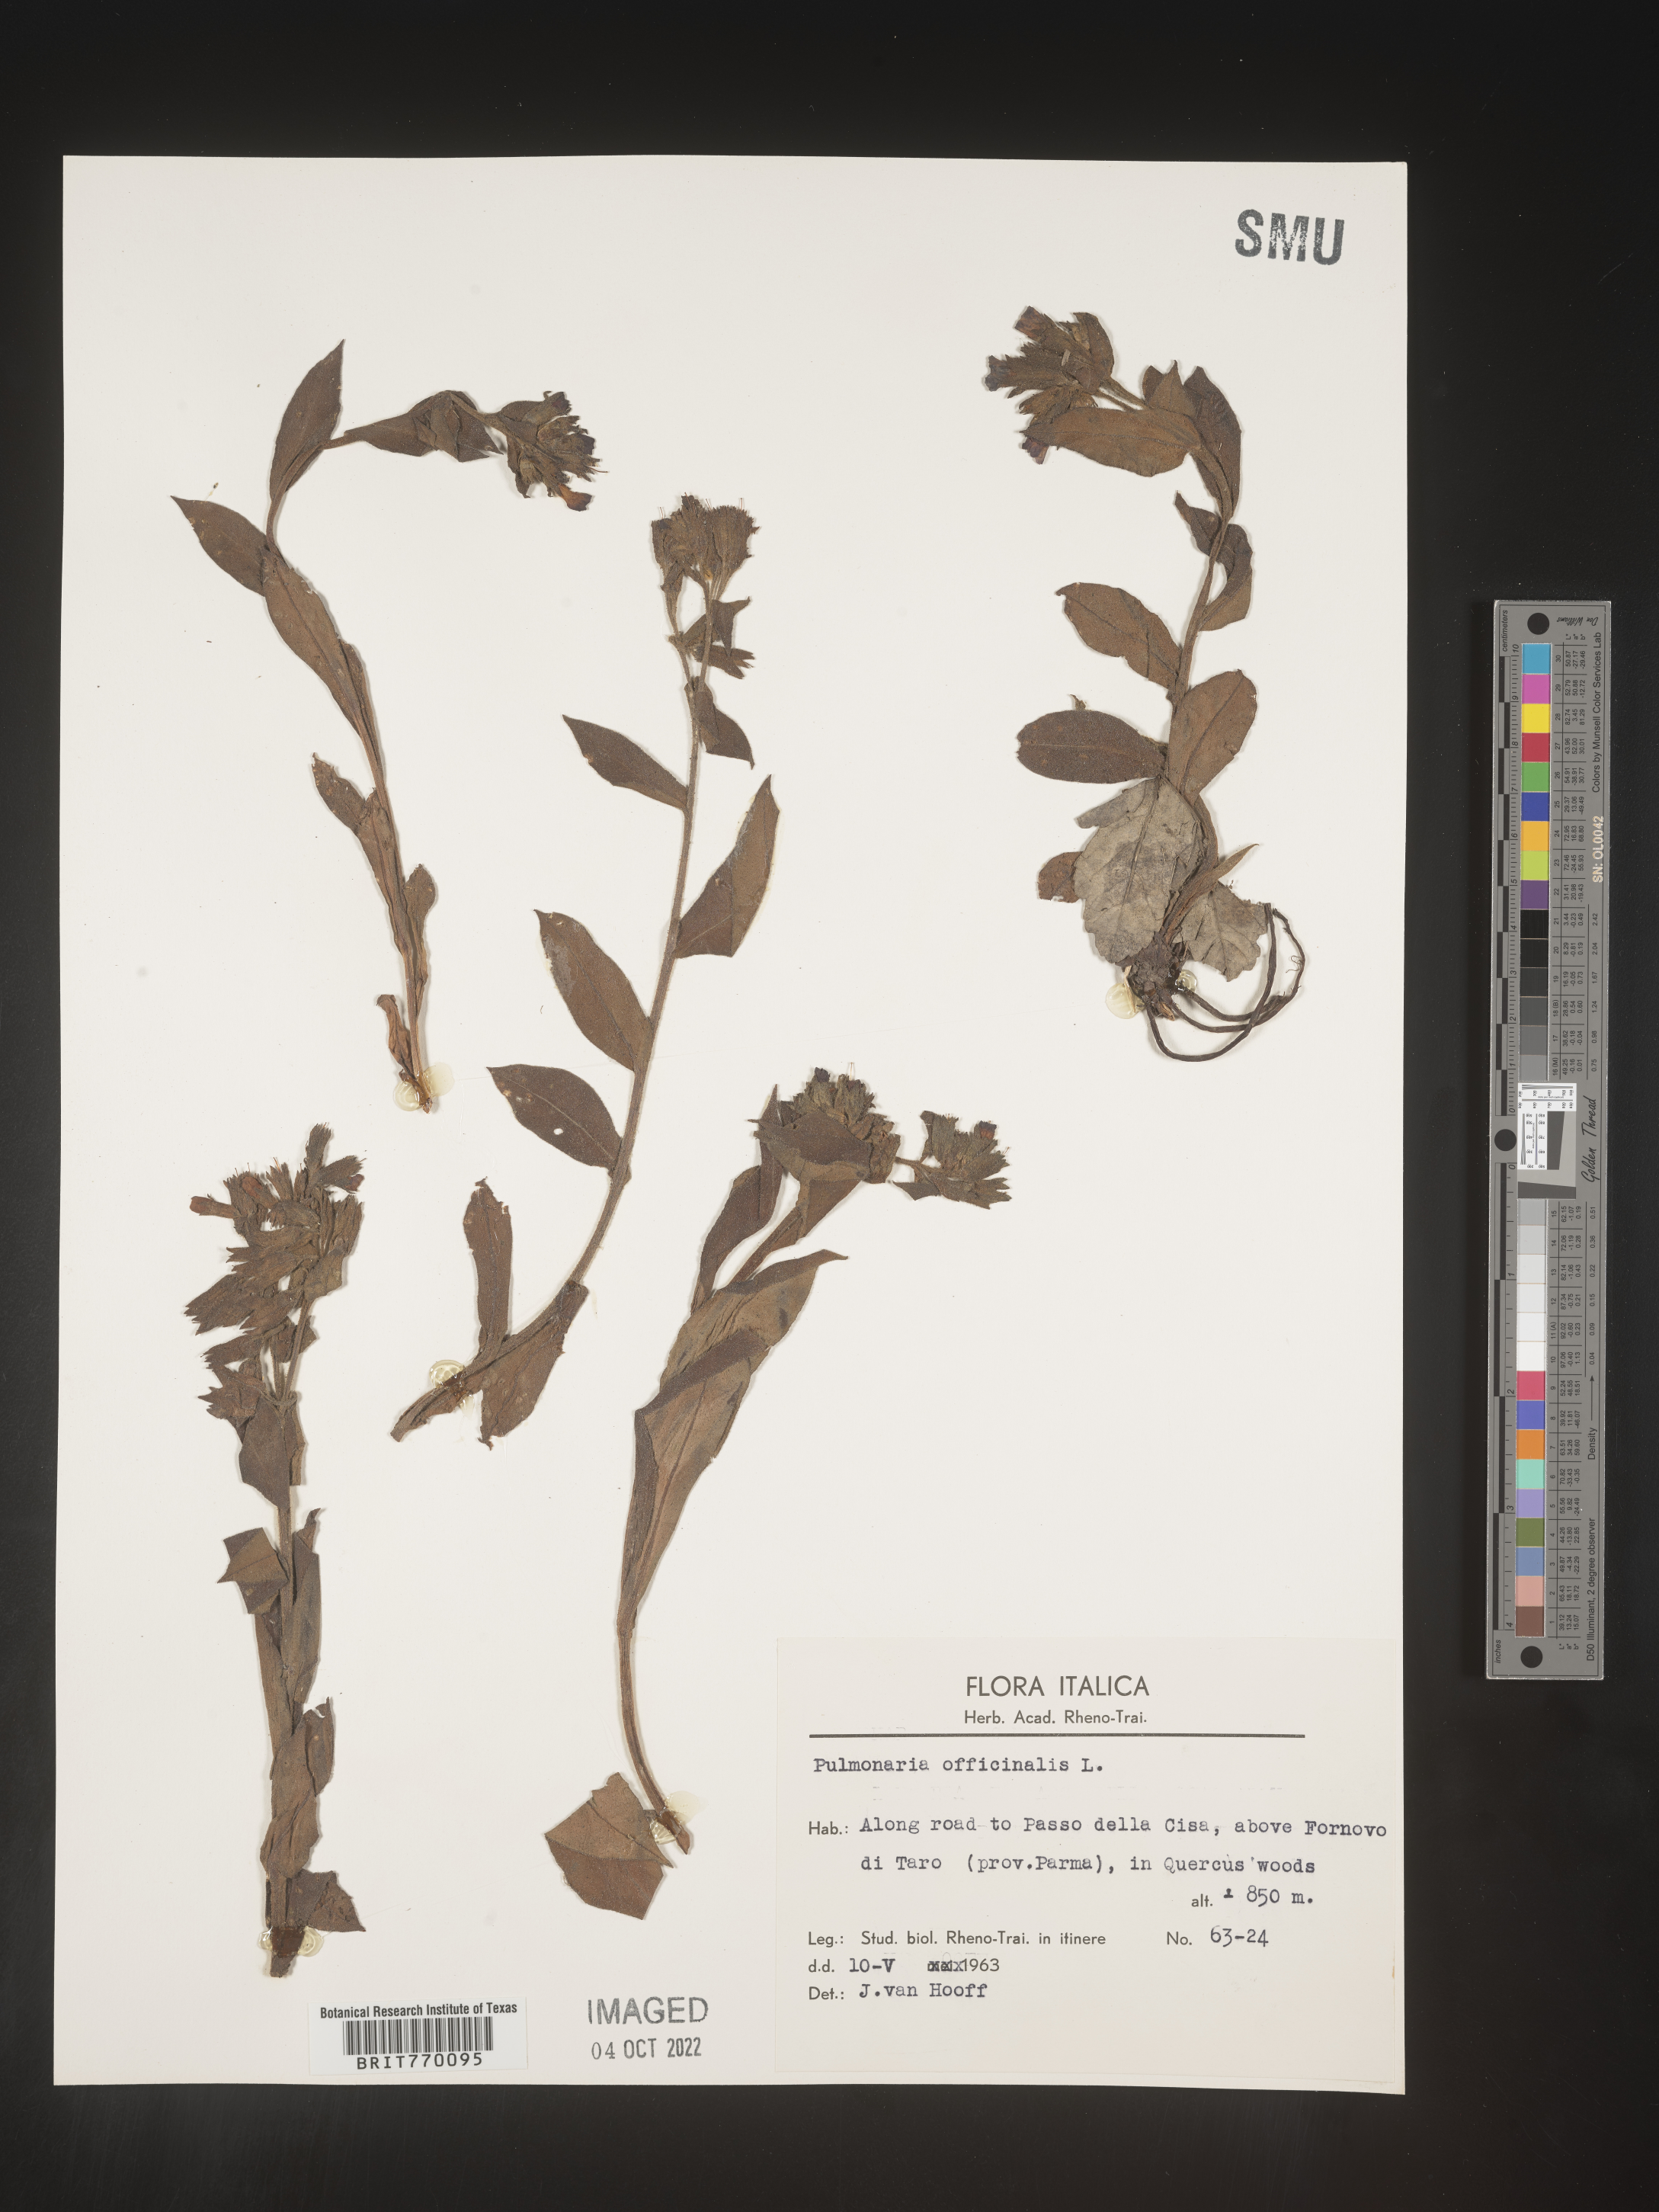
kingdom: Plantae
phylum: Tracheophyta
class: Magnoliopsida
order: Boraginales
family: Boraginaceae
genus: Pulmonaria
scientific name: Pulmonaria
